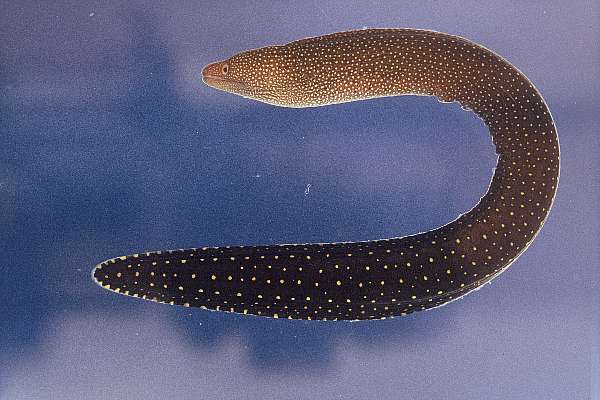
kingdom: Animalia
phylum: Chordata
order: Anguilliformes
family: Muraenidae
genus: Gymnothorax
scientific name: Gymnothorax eurostus
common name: Stout moray
